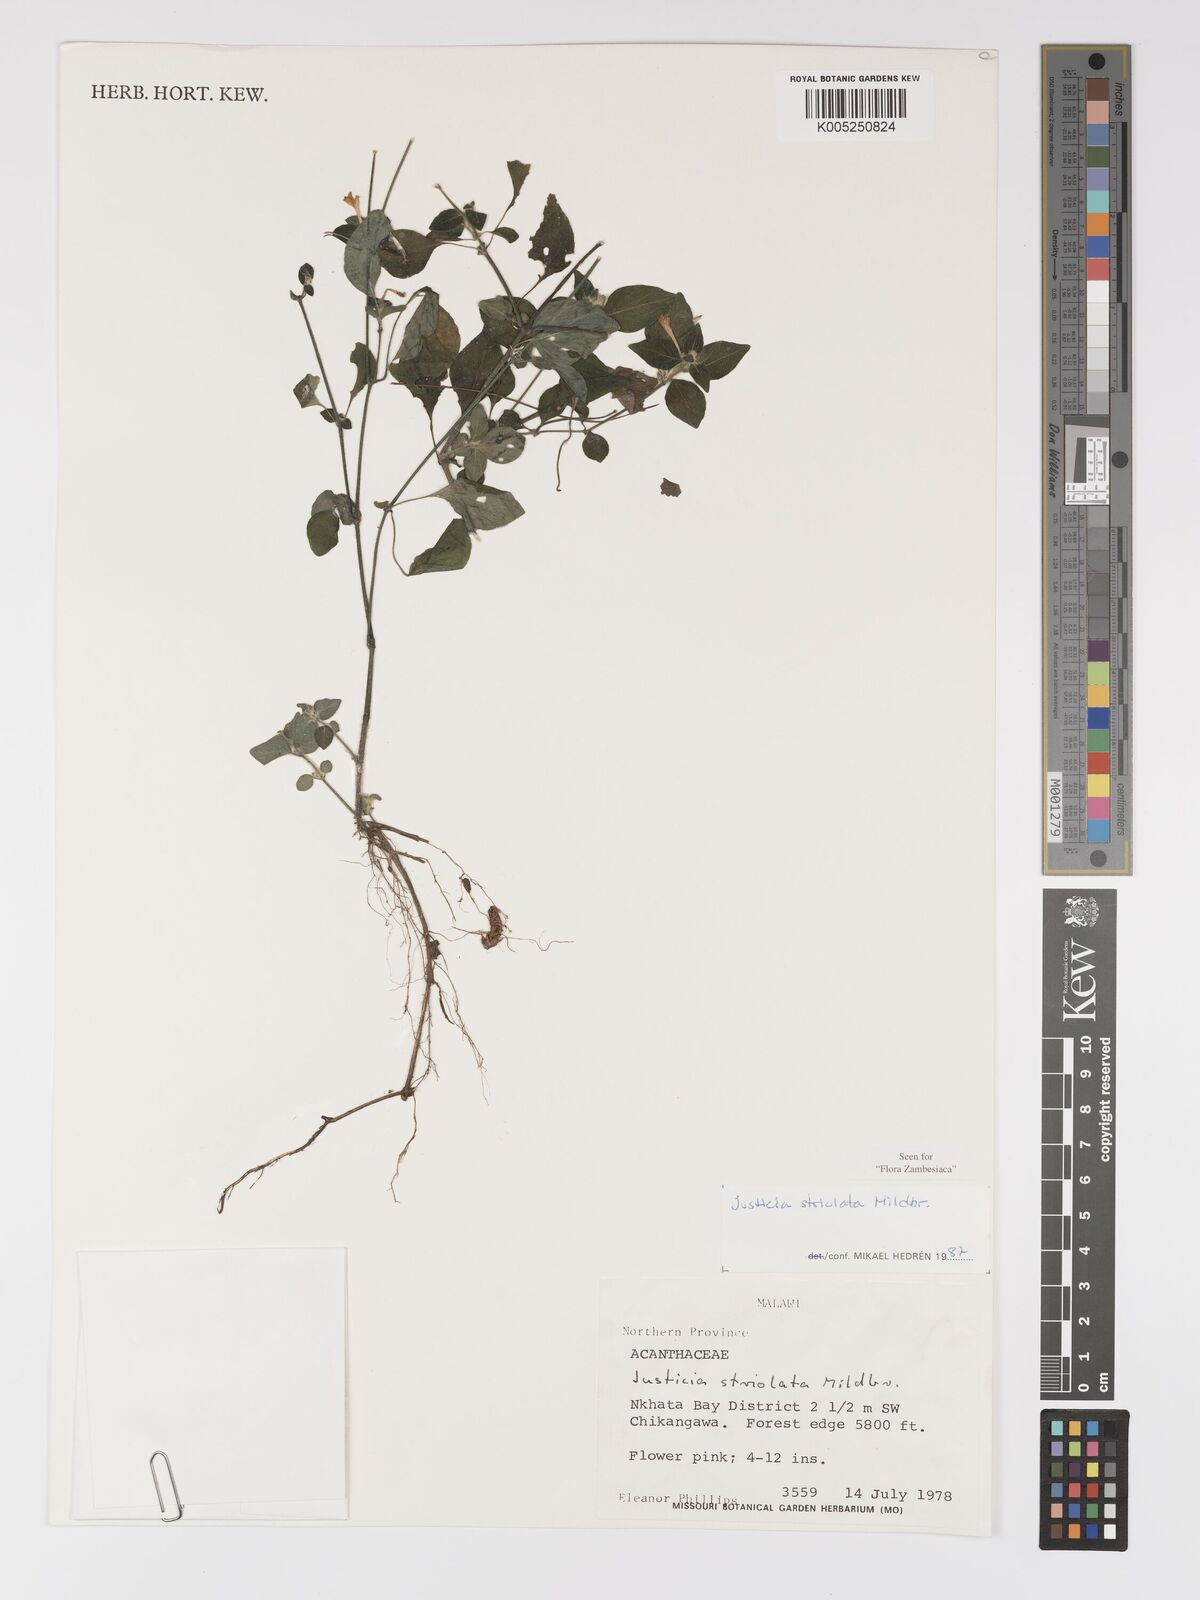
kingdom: Plantae
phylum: Tracheophyta
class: Magnoliopsida
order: Lamiales
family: Acanthaceae
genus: Justicia
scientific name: Justicia striolata
